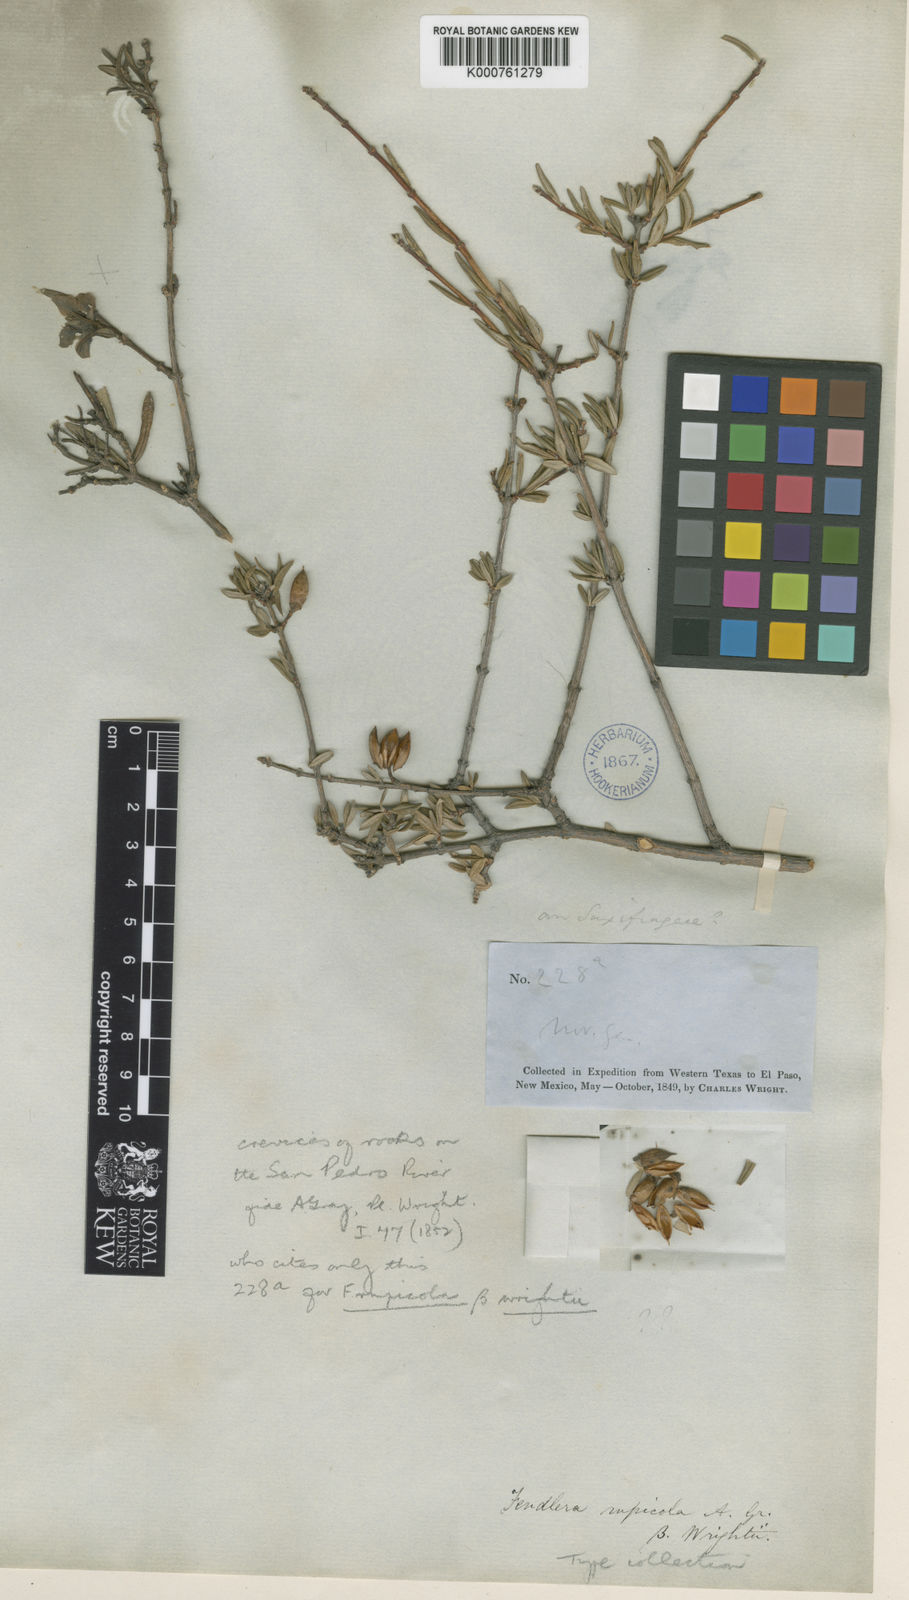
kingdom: Plantae
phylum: Tracheophyta
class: Magnoliopsida
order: Cornales
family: Hydrangeaceae
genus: Fendlera
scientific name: Fendlera wrightii
